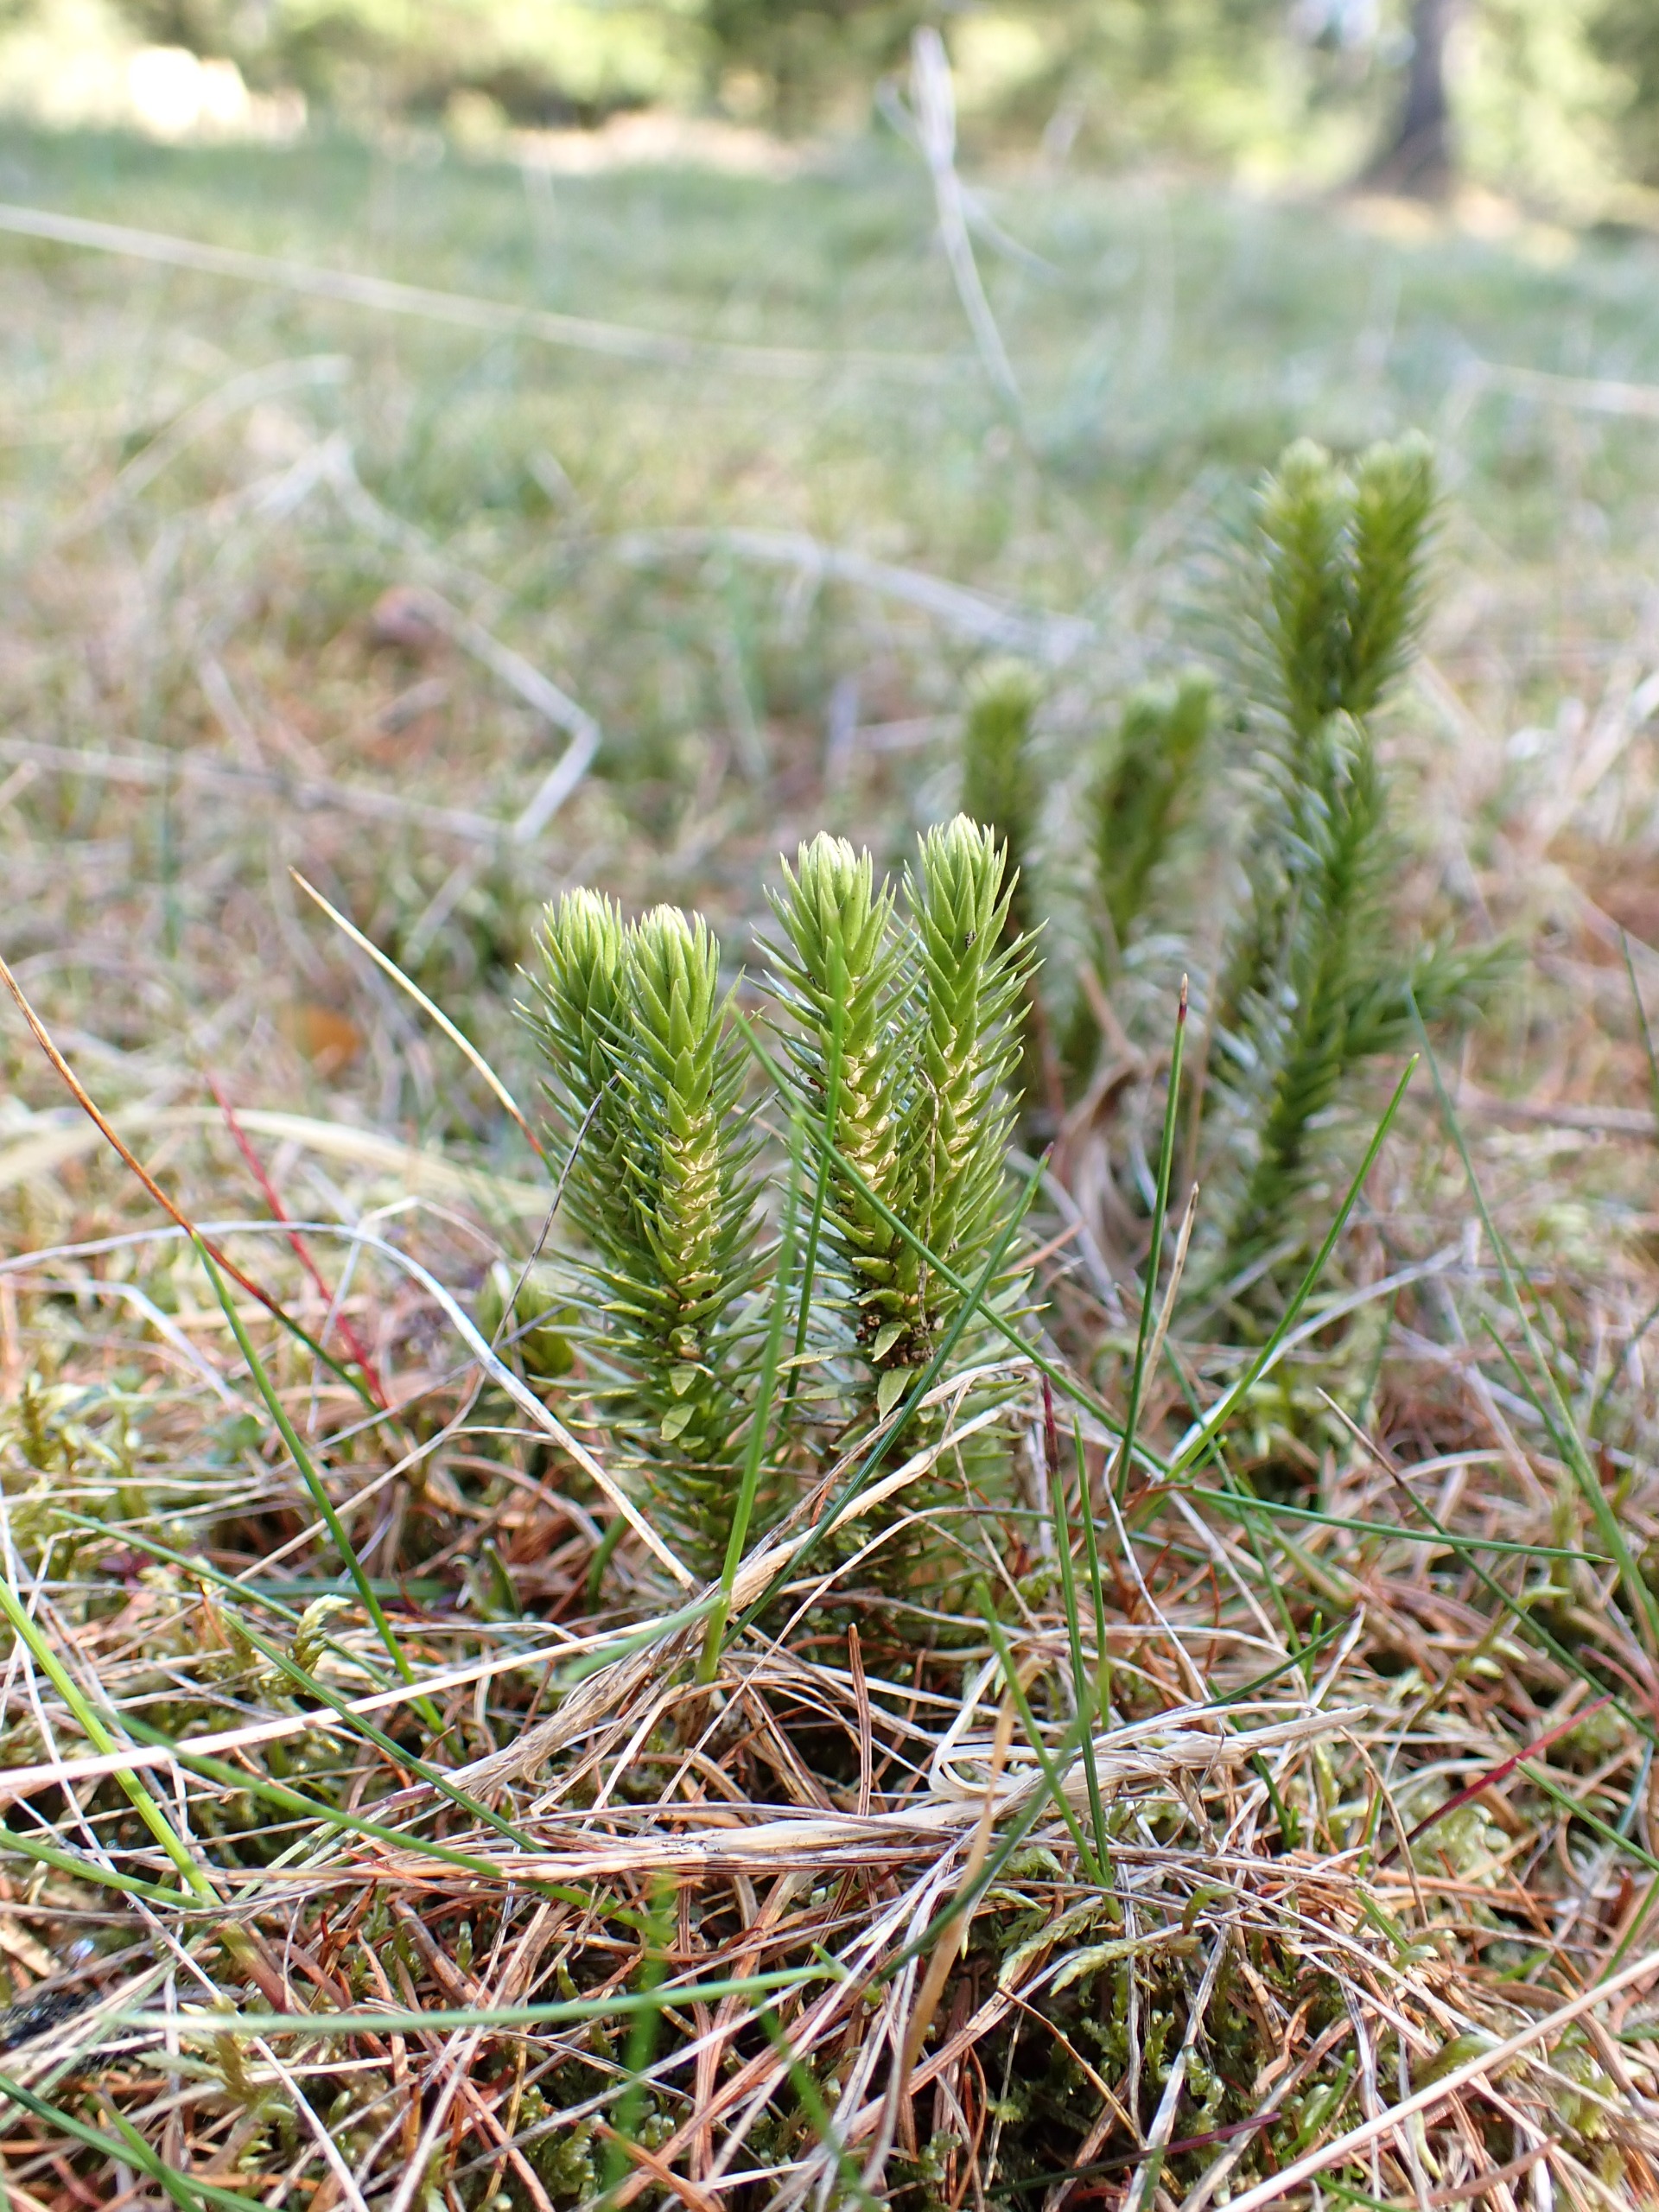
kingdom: Plantae
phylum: Tracheophyta
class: Lycopodiopsida
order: Lycopodiales
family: Lycopodiaceae
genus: Huperzia
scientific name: Huperzia selago
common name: Otteradet ulvefod
